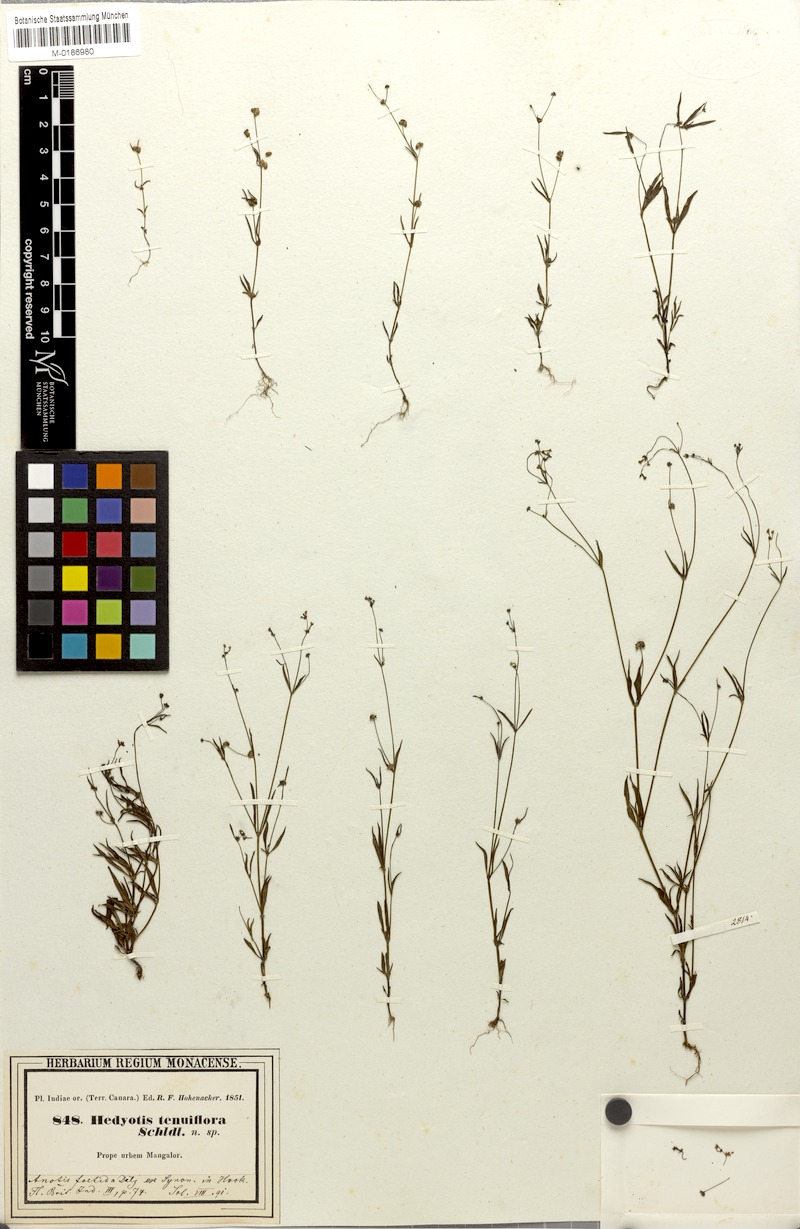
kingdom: Plantae
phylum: Tracheophyta
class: Magnoliopsida
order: Gentianales
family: Rubiaceae
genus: Neanotis
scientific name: Neanotis subtilis
